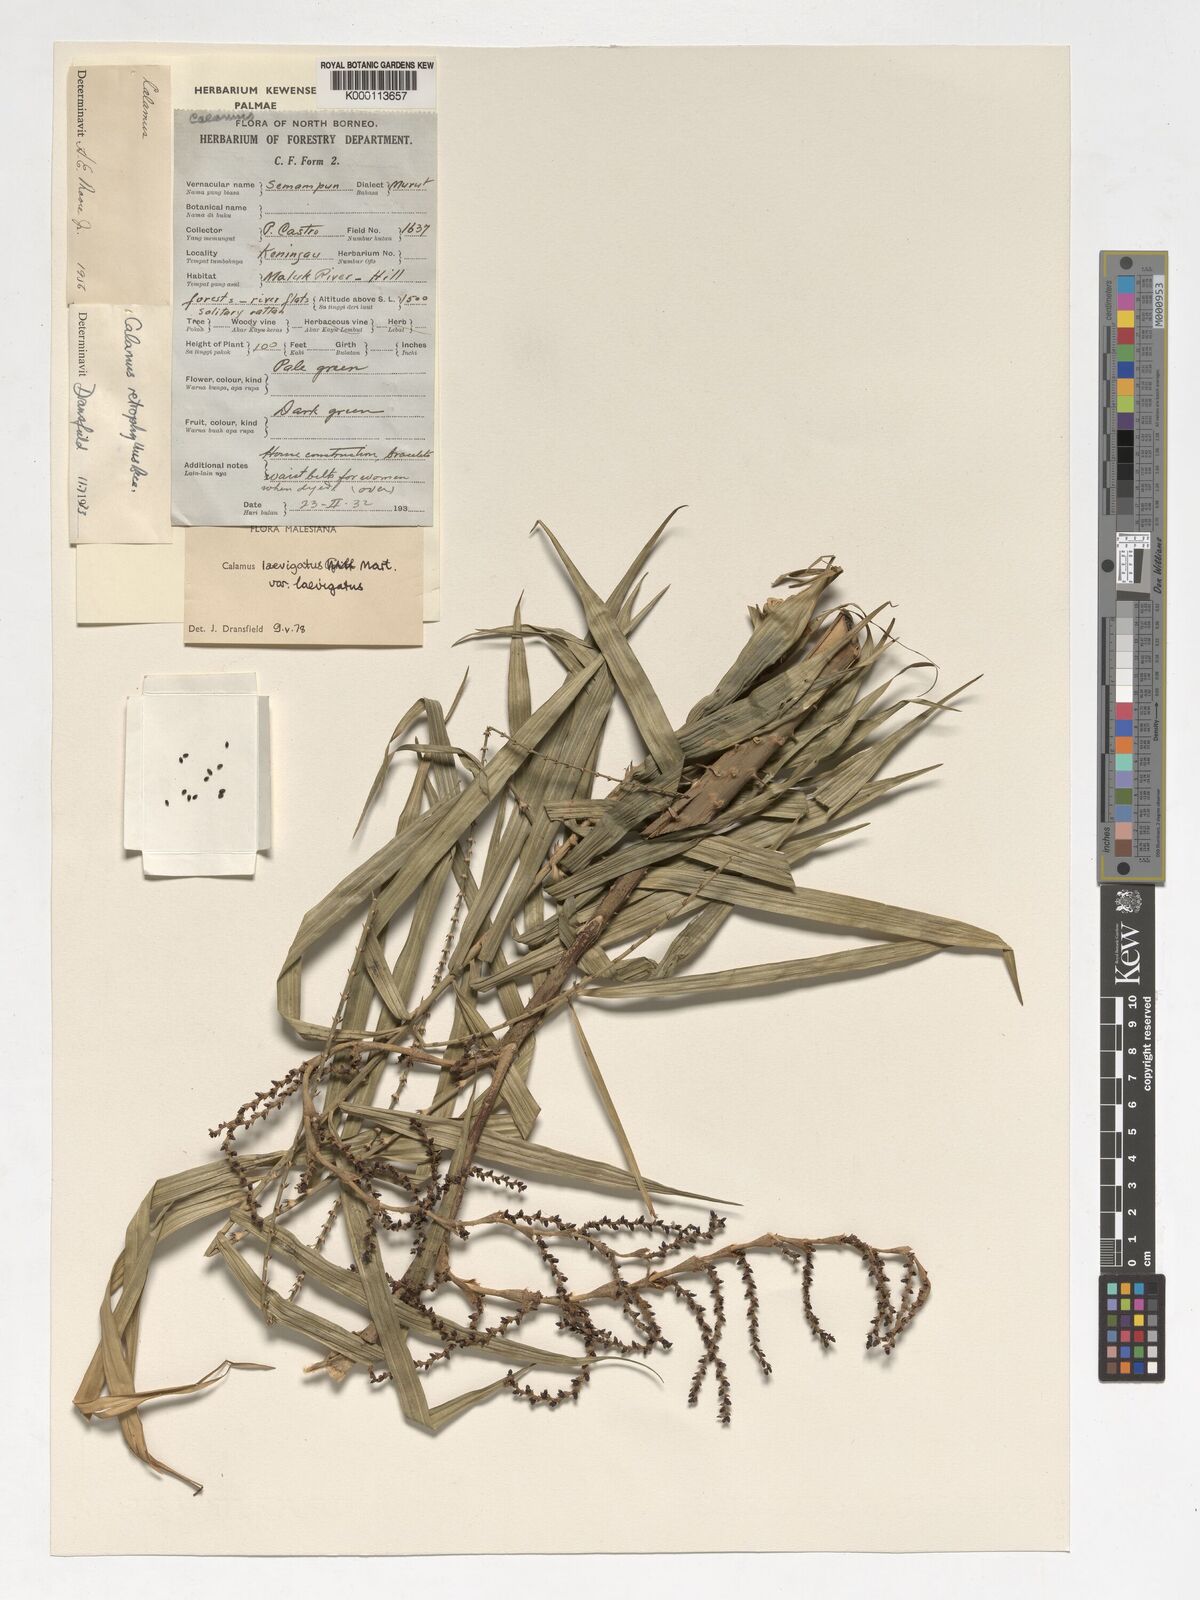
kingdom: Plantae
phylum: Tracheophyta
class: Liliopsida
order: Arecales
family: Arecaceae
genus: Calamus
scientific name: Calamus
